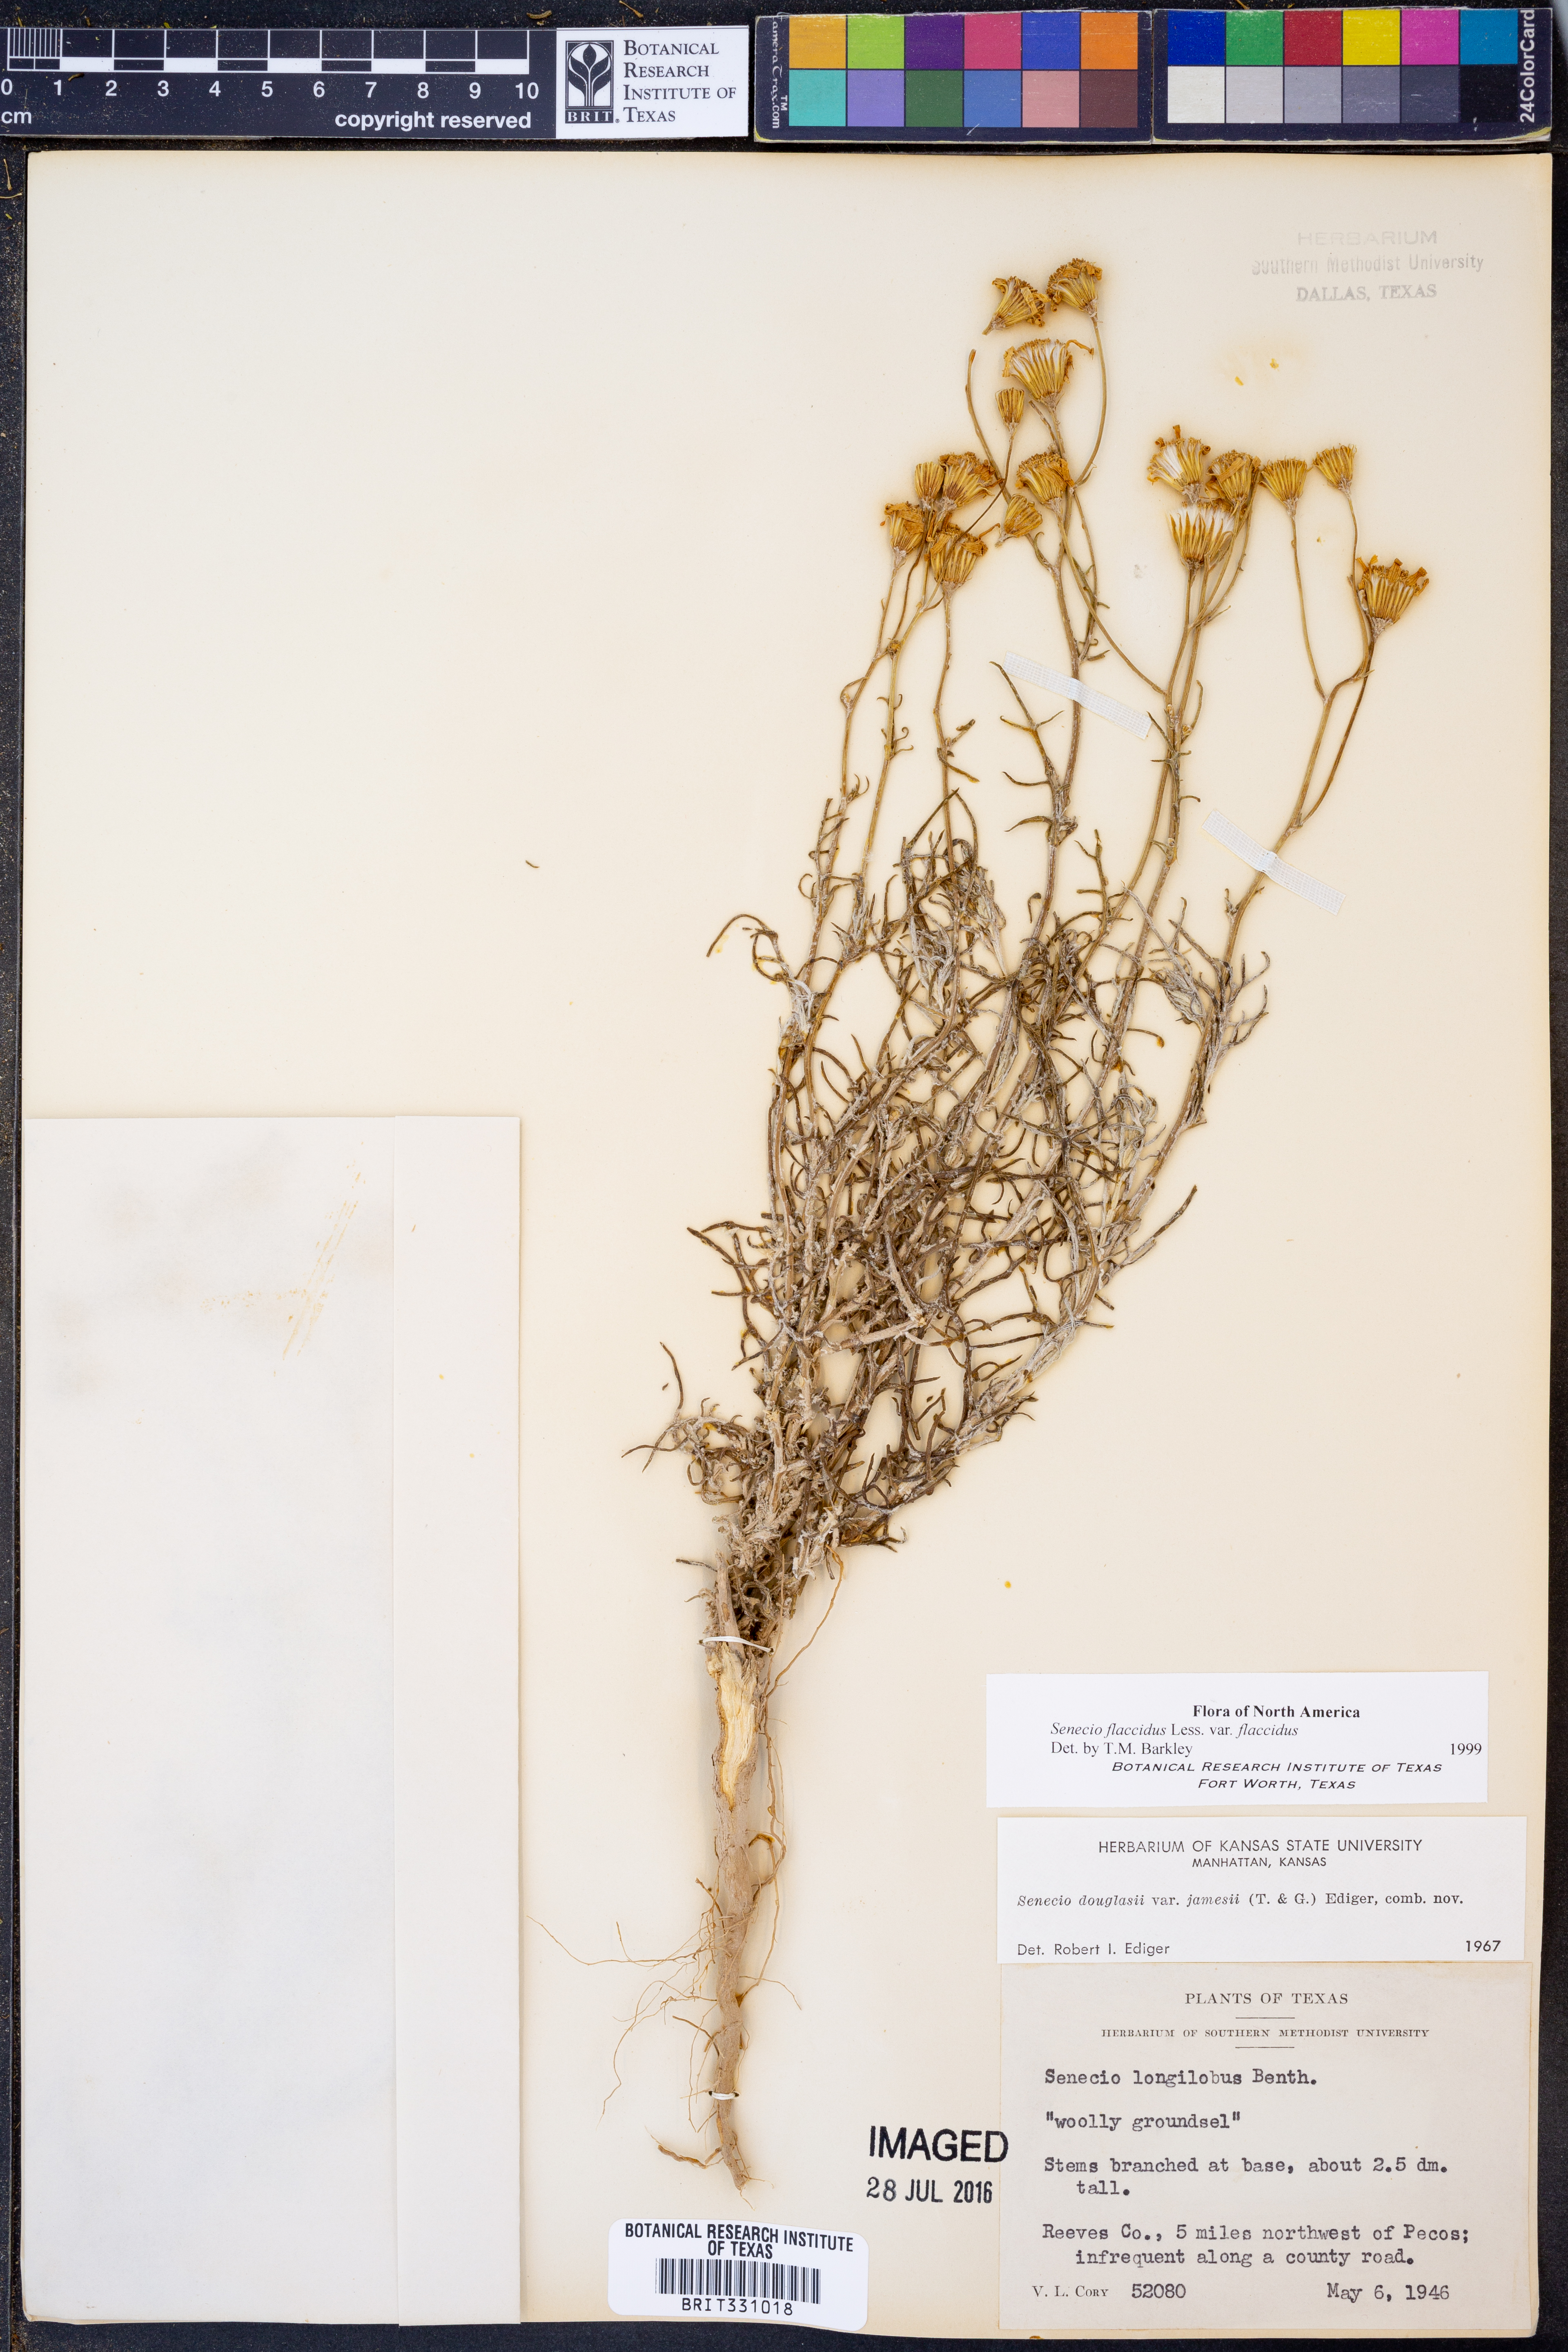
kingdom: Plantae
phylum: Tracheophyta
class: Magnoliopsida
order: Asterales
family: Asteraceae
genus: Senecio
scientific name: Senecio flaccidus
